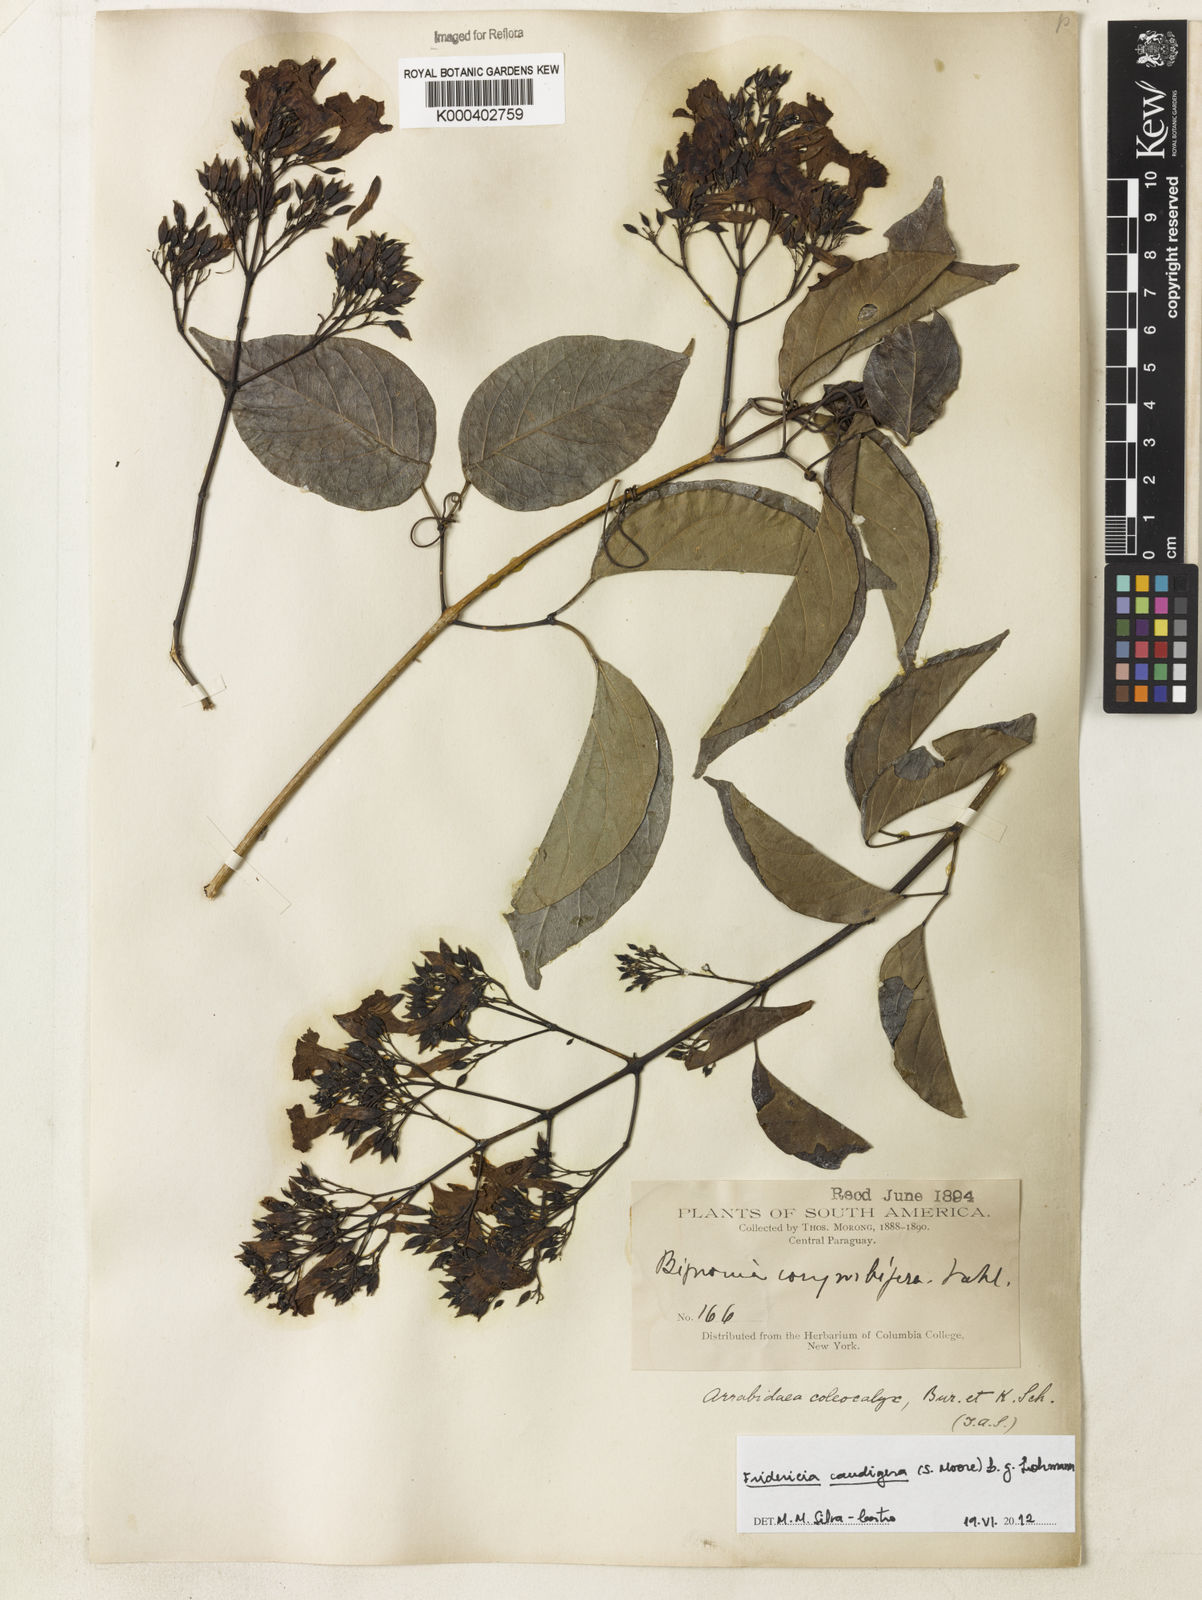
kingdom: Plantae
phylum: Tracheophyta
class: Magnoliopsida
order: Lamiales
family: Bignoniaceae
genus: Fridericia
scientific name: Fridericia caudigera
